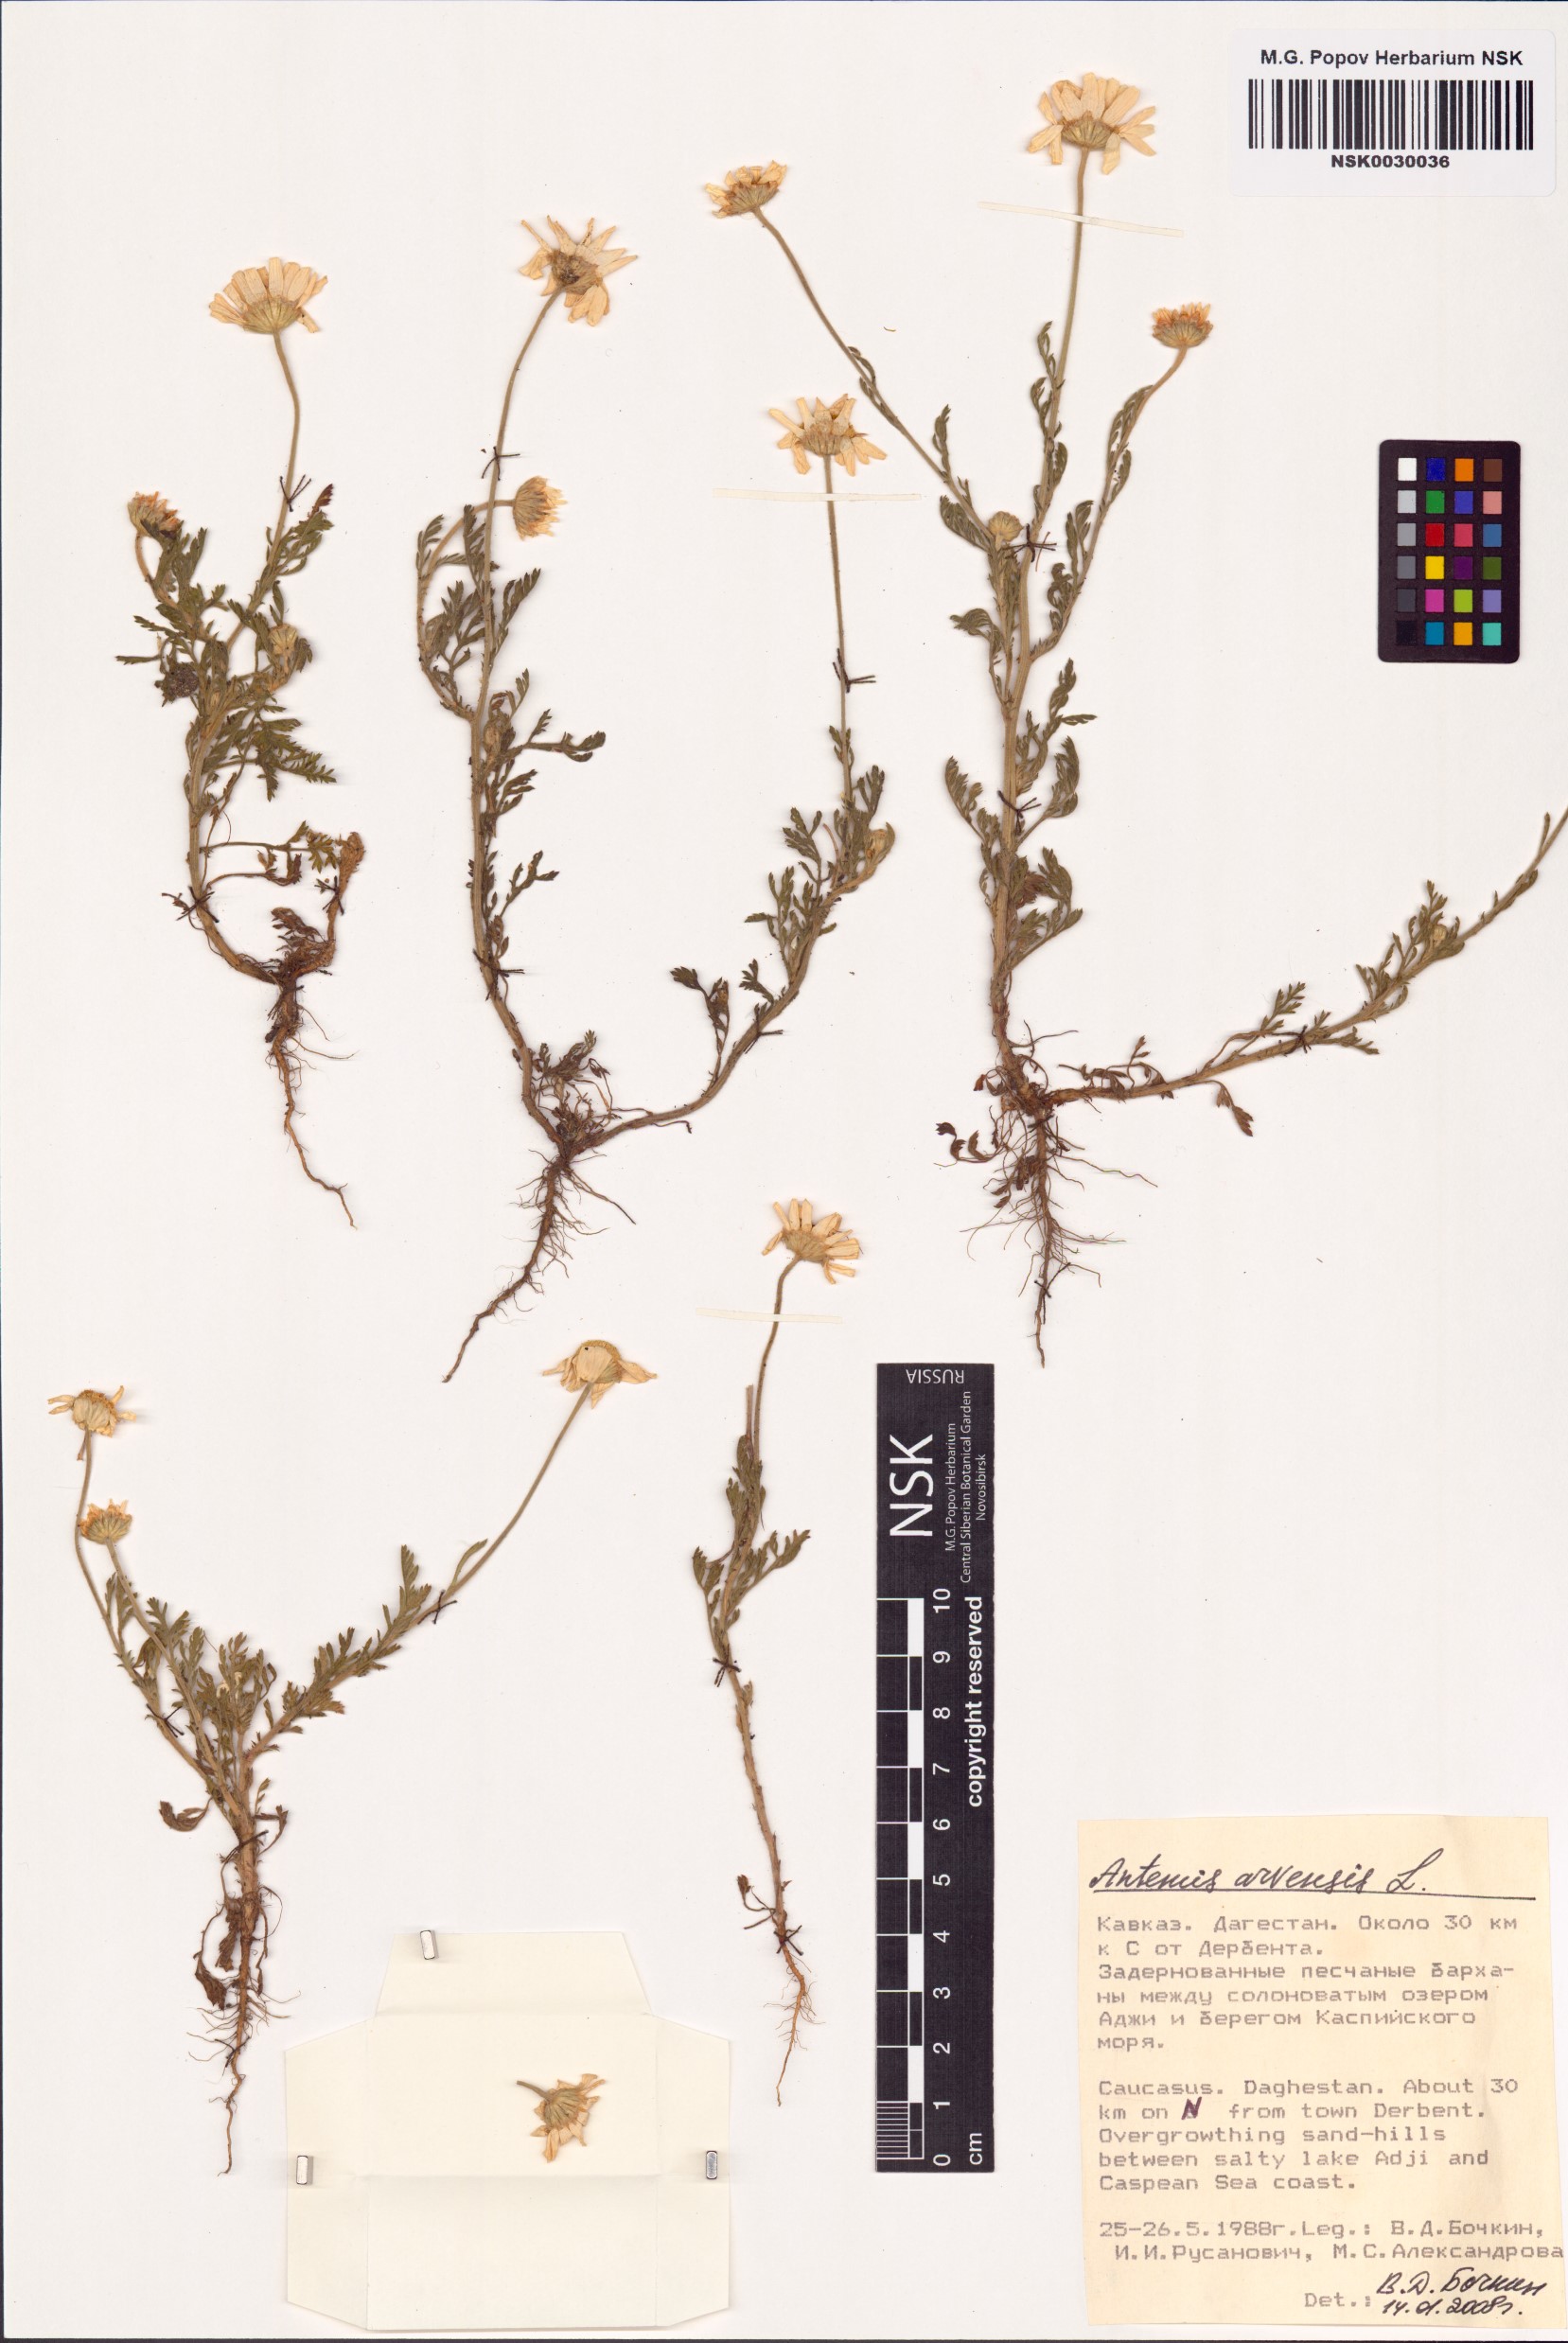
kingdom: Plantae
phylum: Tracheophyta
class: Magnoliopsida
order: Asterales
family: Asteraceae
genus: Anthemis
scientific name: Anthemis arvensis
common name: Corn chamomile
